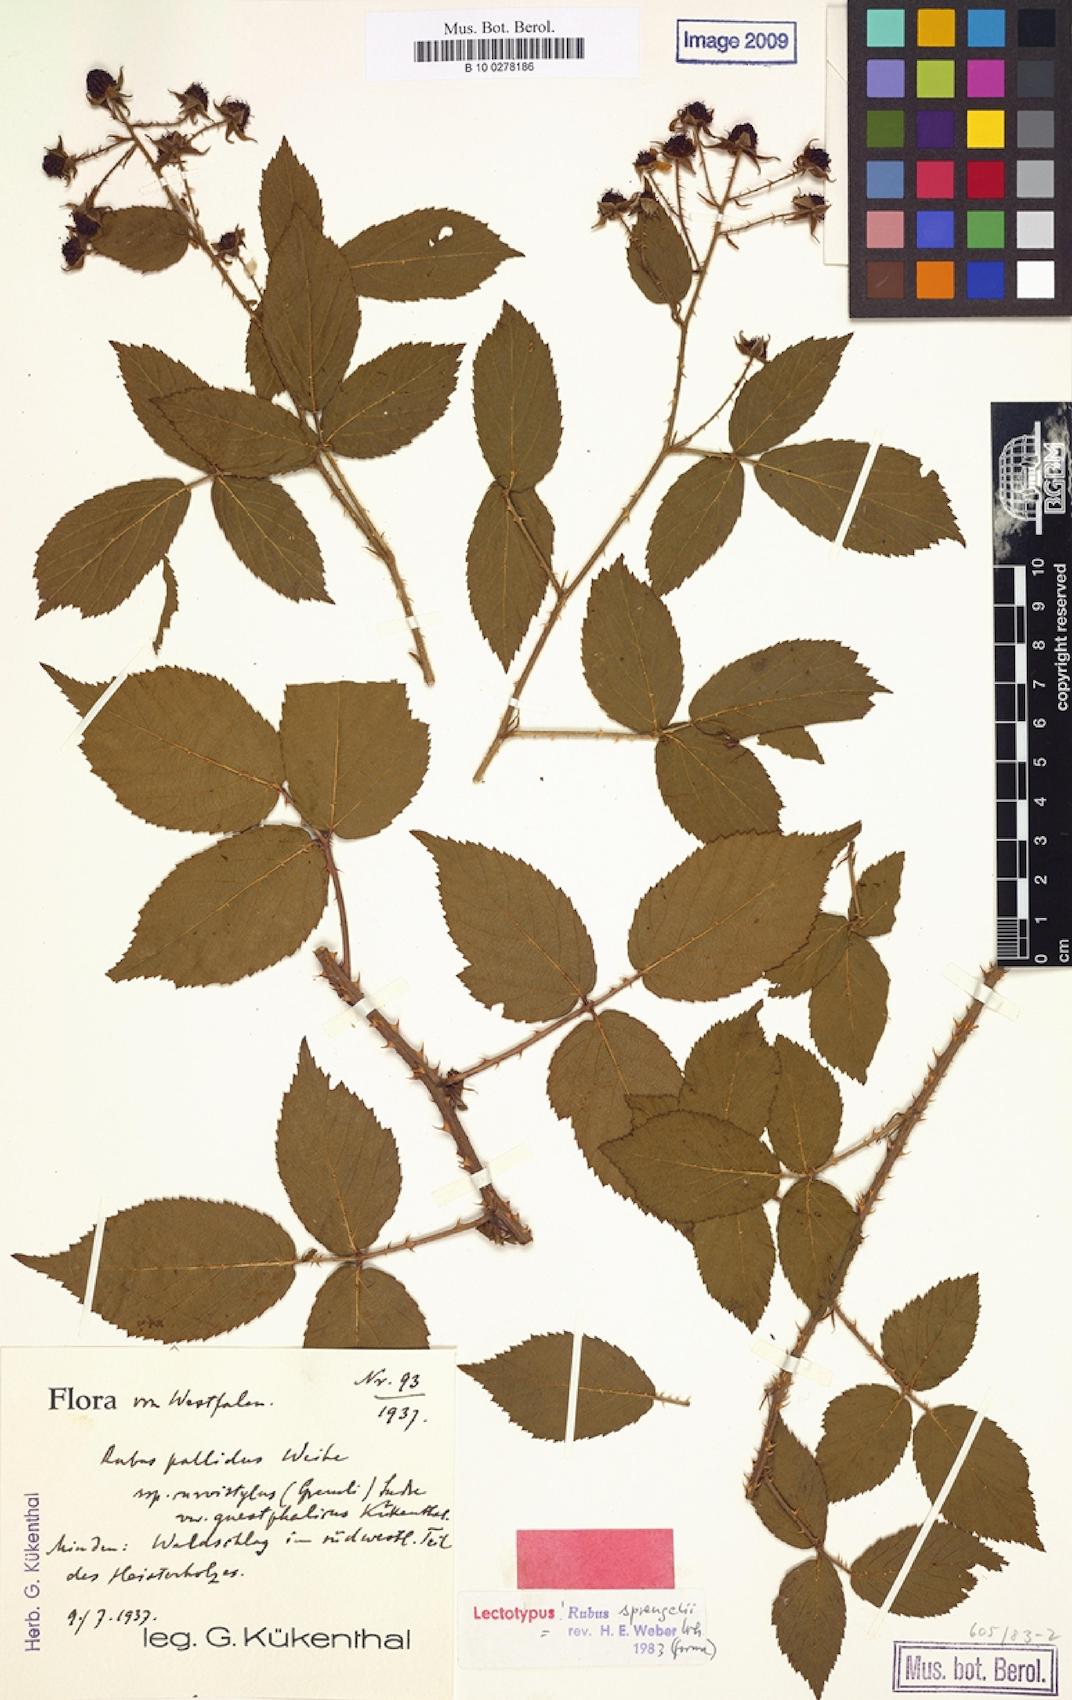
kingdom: Plantae
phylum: Tracheophyta
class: Magnoliopsida
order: Rosales
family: Rosaceae
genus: Rubus
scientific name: Rubus sprengelii
